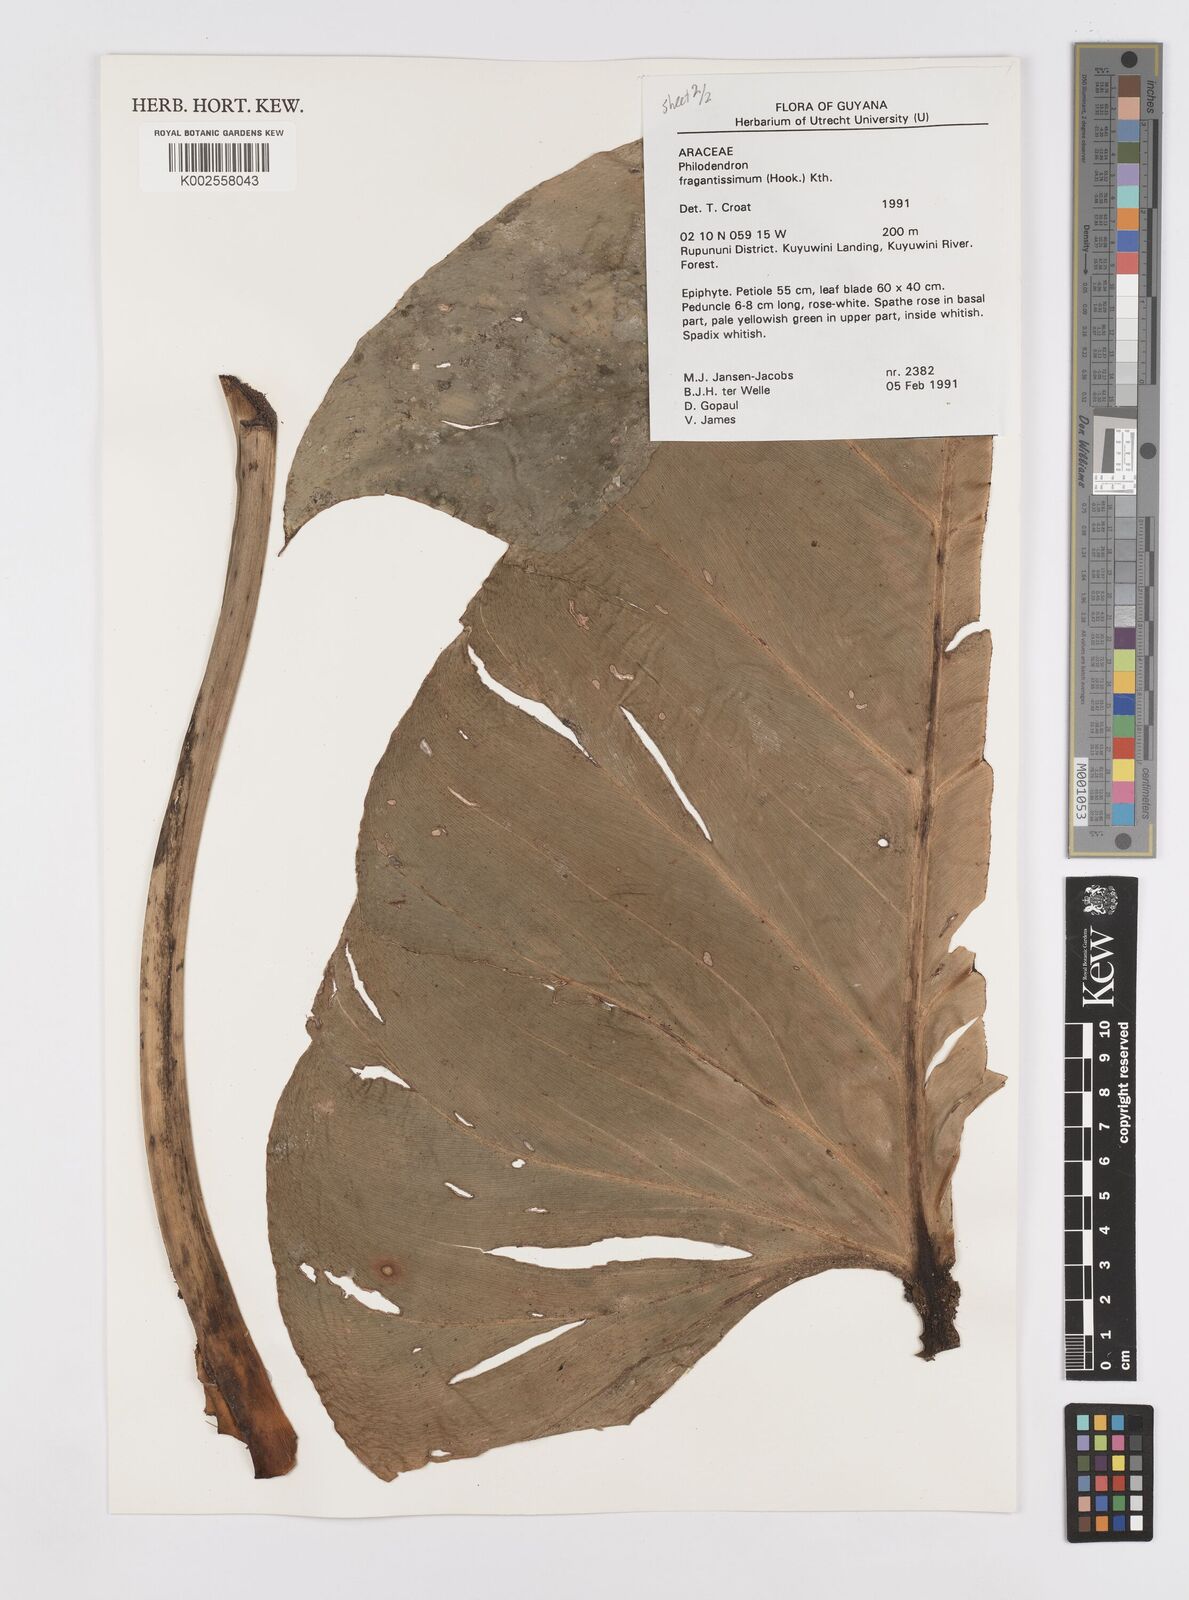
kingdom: Plantae
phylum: Tracheophyta
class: Liliopsida
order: Alismatales
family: Araceae
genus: Philodendron
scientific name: Philodendron fragrantissimum
